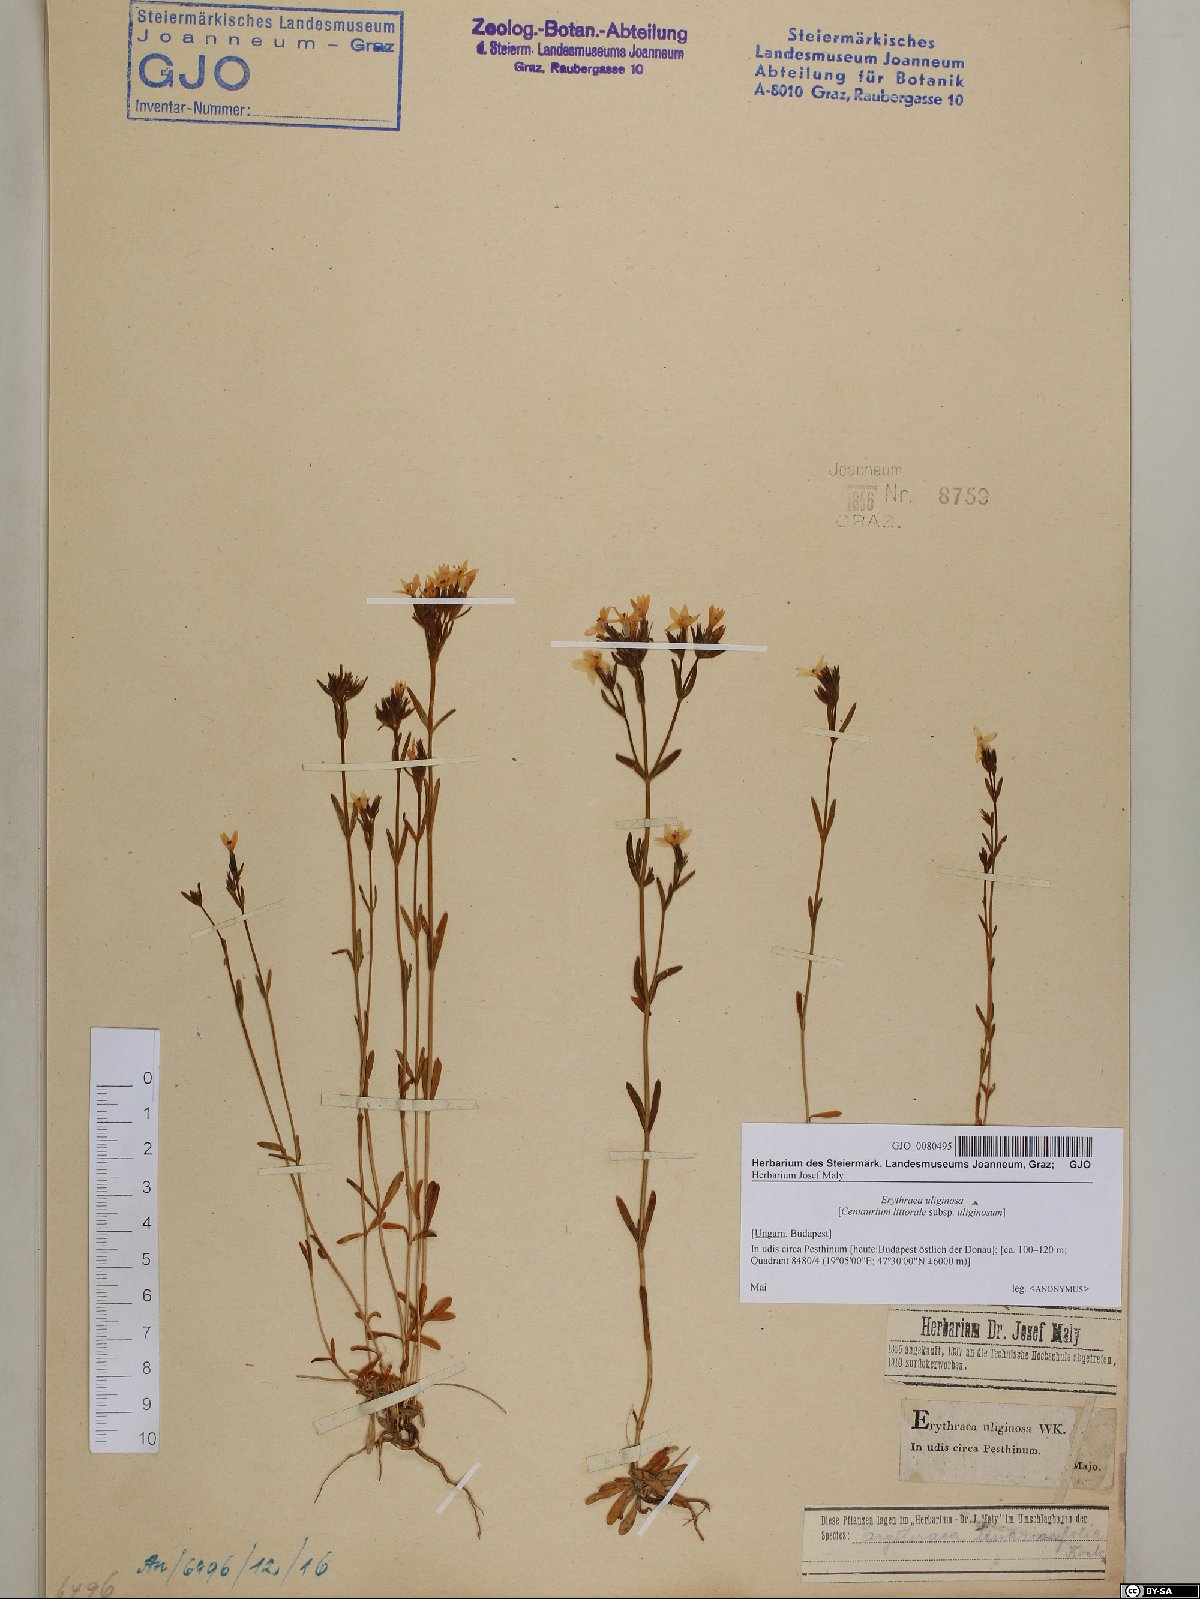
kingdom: Plantae
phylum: Tracheophyta
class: Magnoliopsida
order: Gentianales
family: Gentianaceae
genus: Centaurium
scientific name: Centaurium littorale
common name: Seaside centaury
